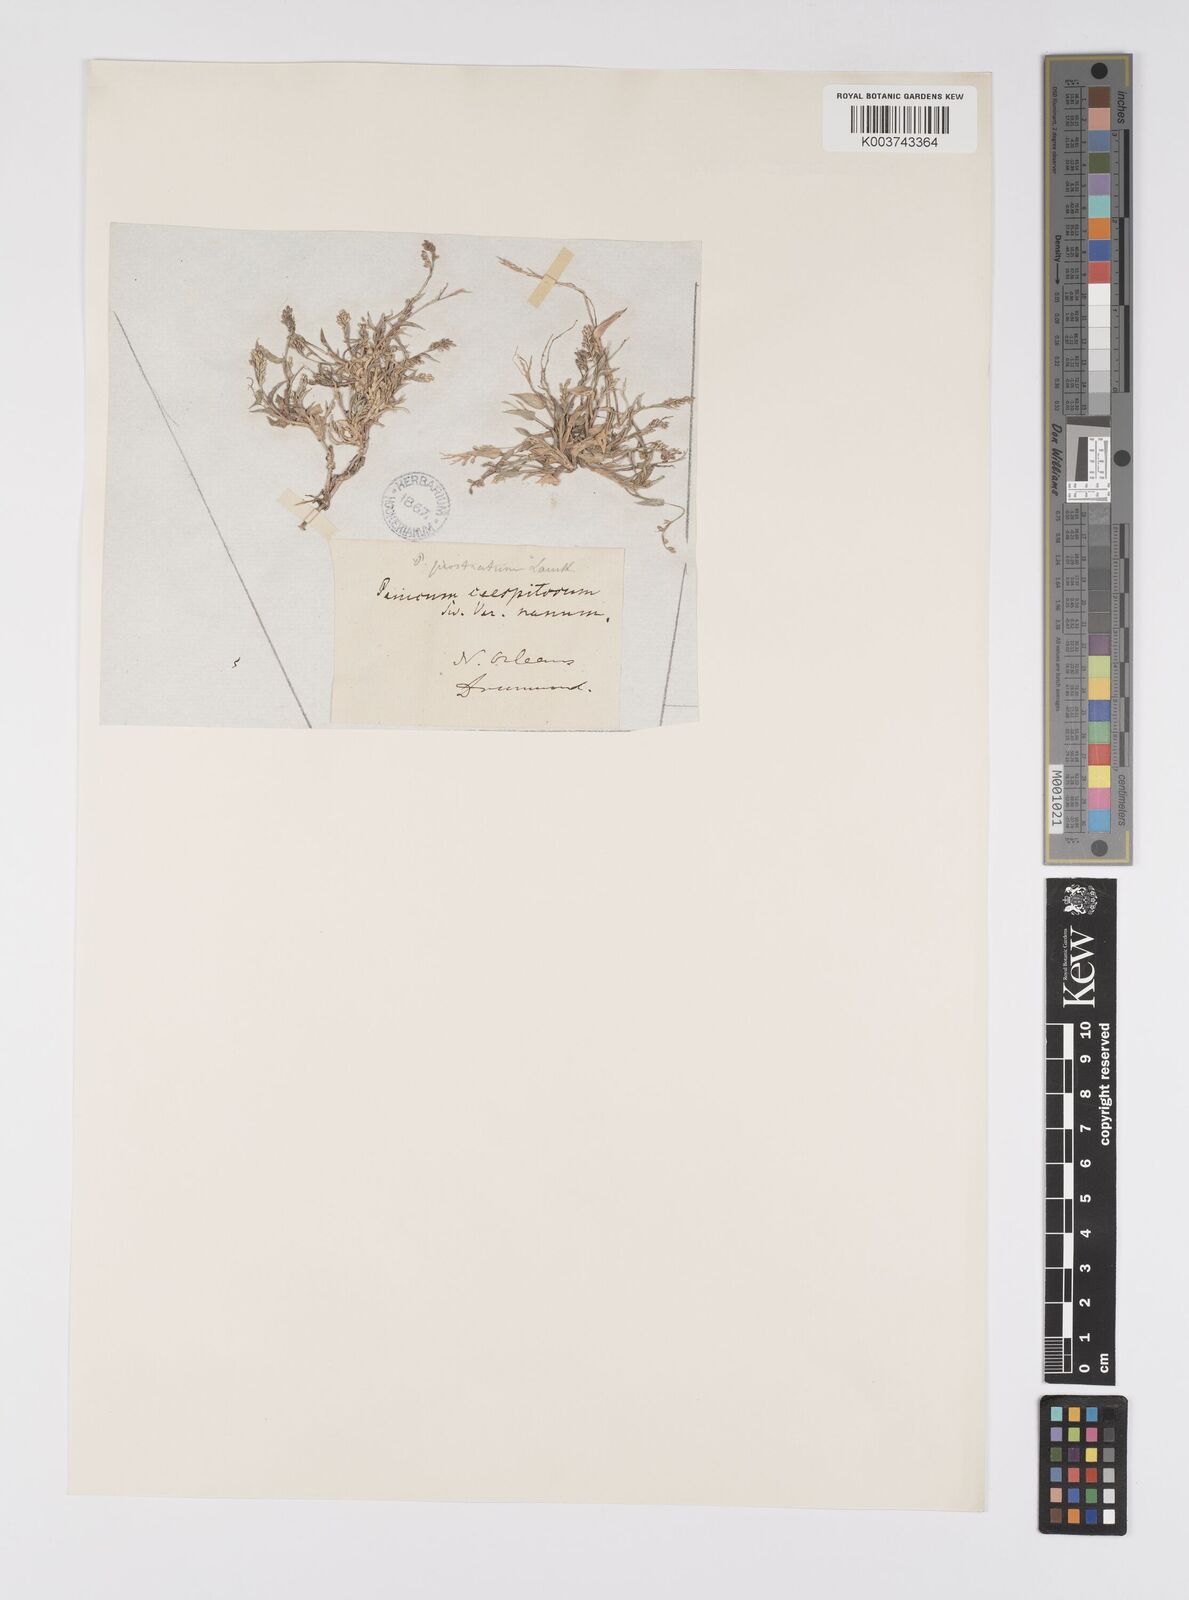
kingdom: Plantae
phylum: Tracheophyta
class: Liliopsida
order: Poales
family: Poaceae
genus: Urochloa
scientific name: Urochloa reptans
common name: Sprawling signalgrass
